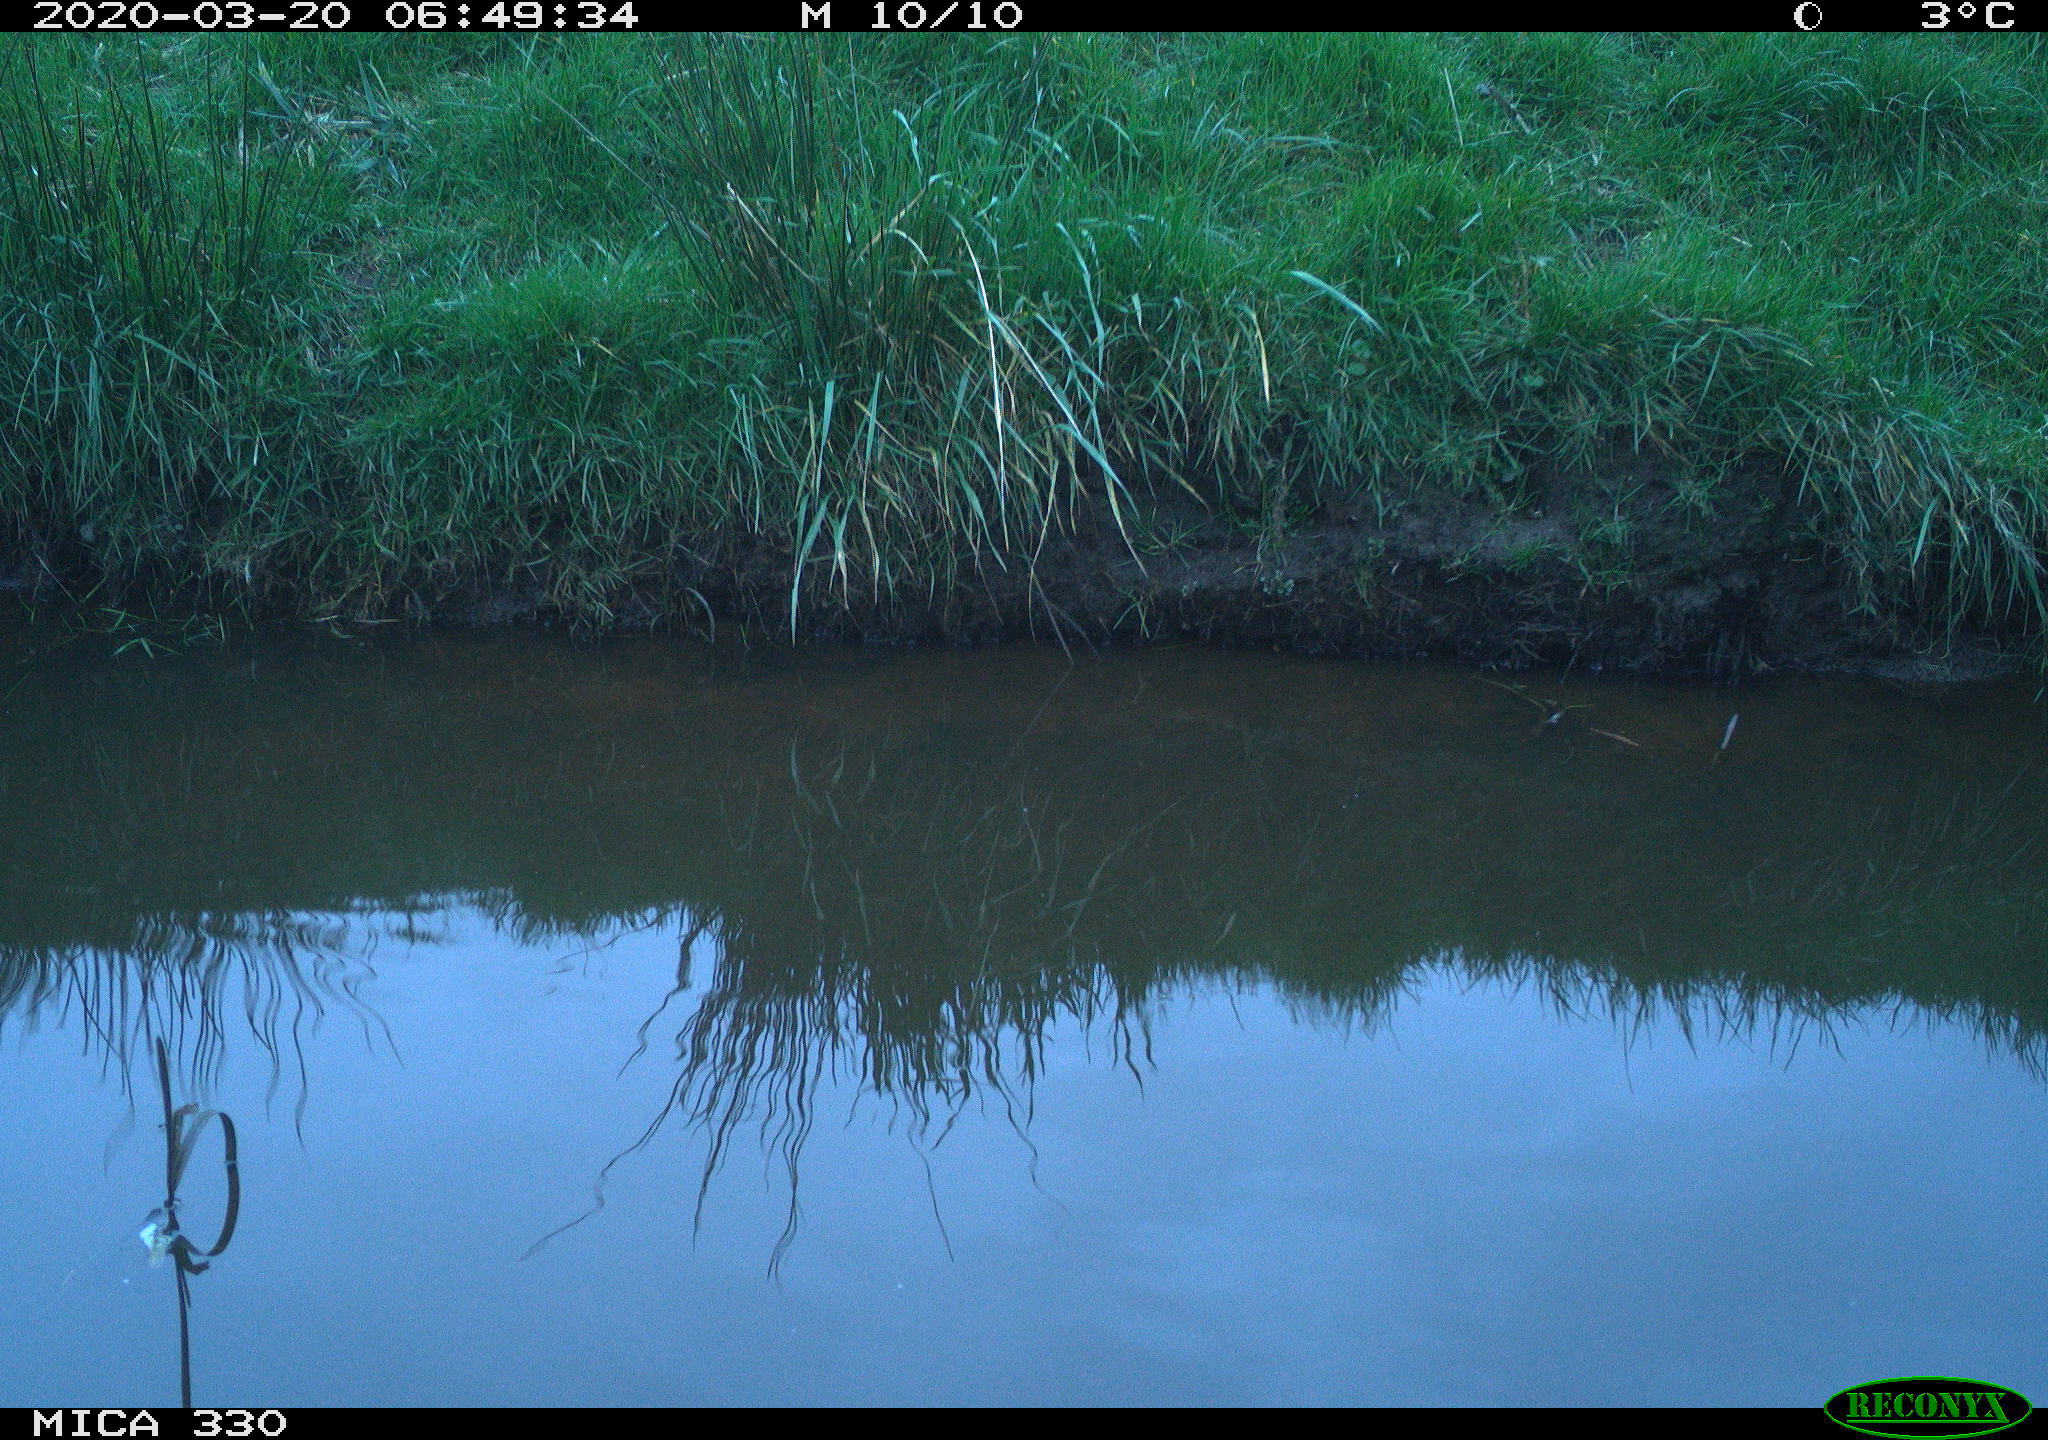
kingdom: Animalia
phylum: Chordata
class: Aves
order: Gruiformes
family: Rallidae
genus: Gallinula
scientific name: Gallinula chloropus
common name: Common moorhen
